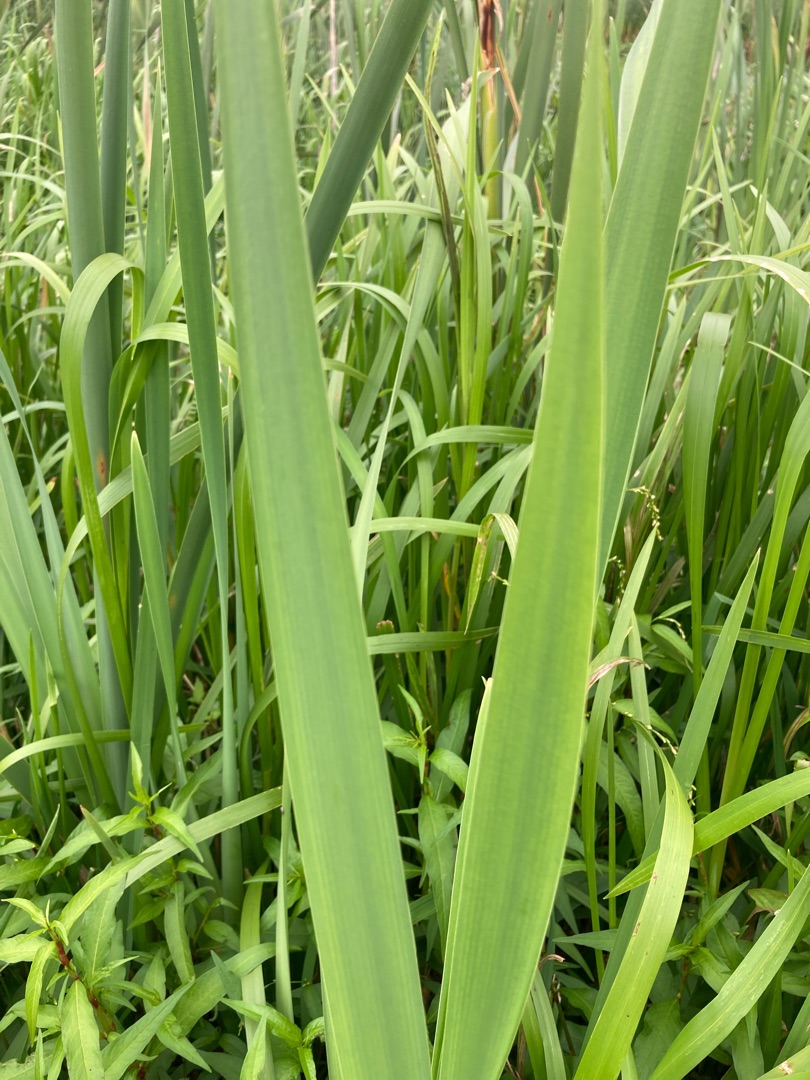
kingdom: Plantae
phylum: Tracheophyta
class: Liliopsida
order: Poales
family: Typhaceae
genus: Typha
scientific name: Typha latifolia
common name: Bredbladet dunhammer
